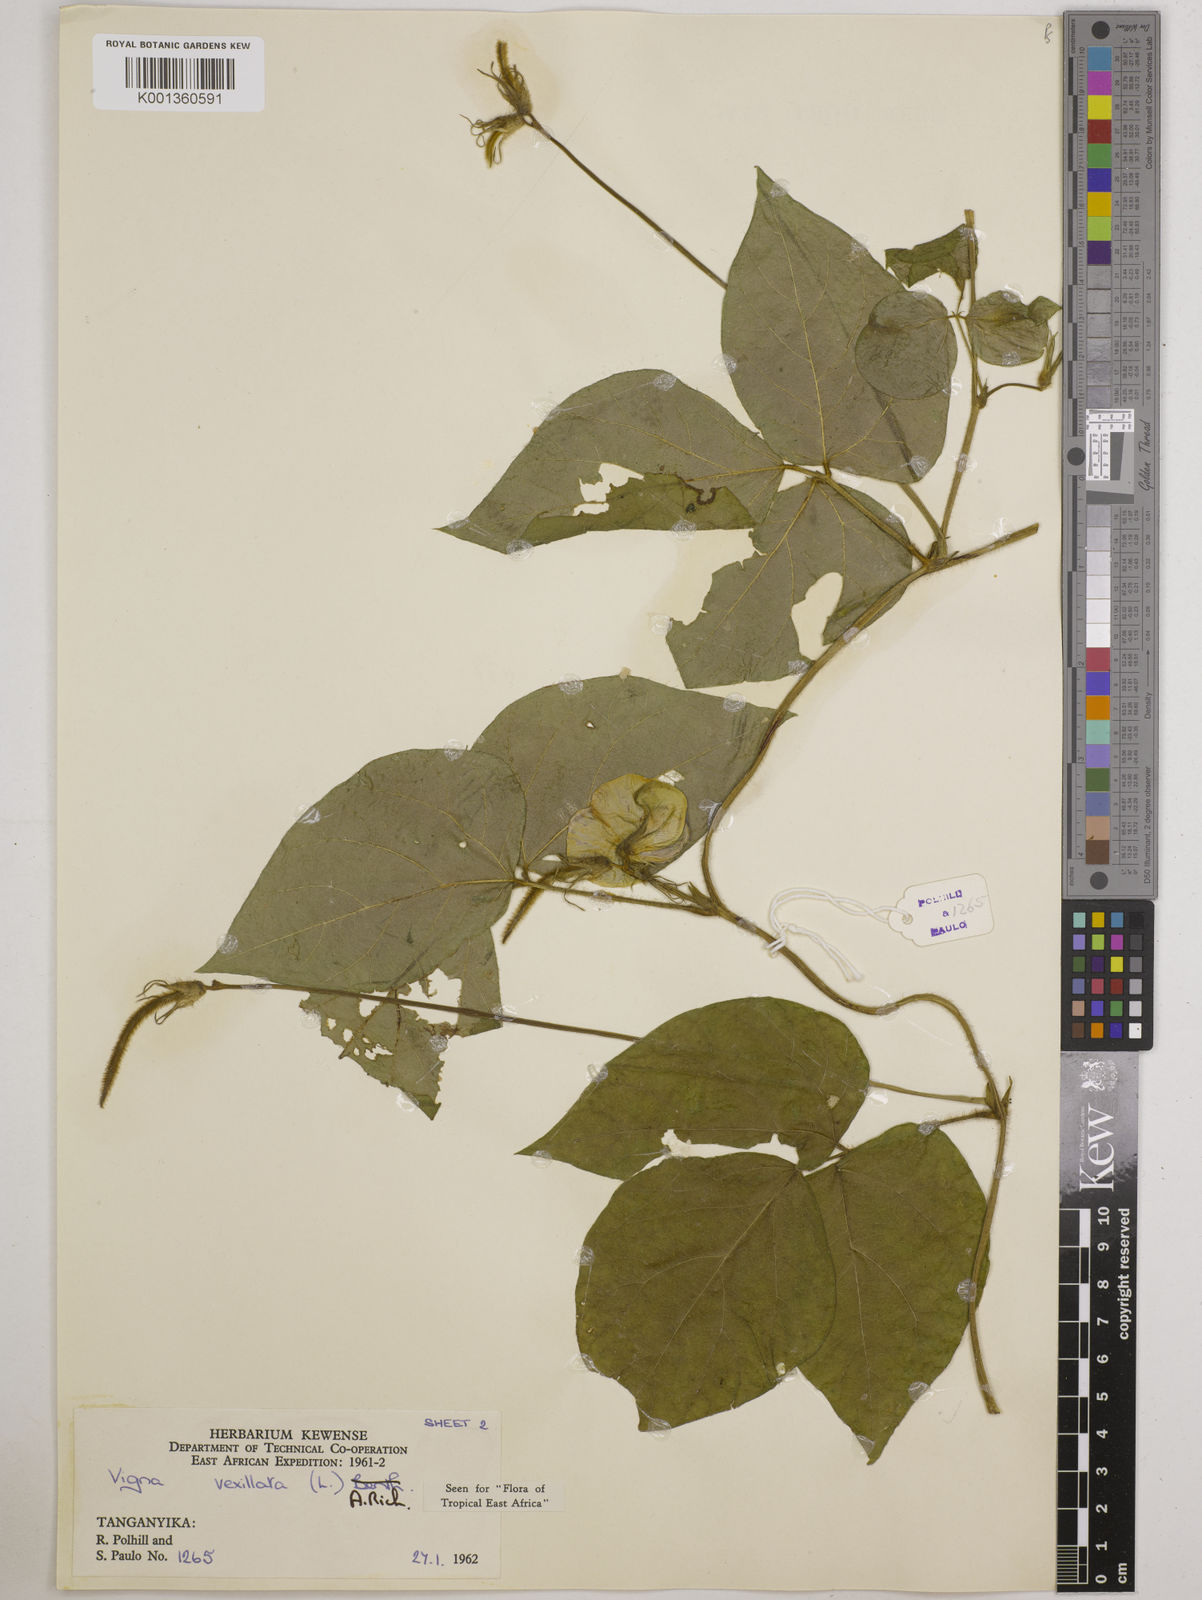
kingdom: Plantae
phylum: Tracheophyta
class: Magnoliopsida
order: Fabales
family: Fabaceae
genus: Vigna
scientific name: Vigna vexillata
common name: Zombi pea
